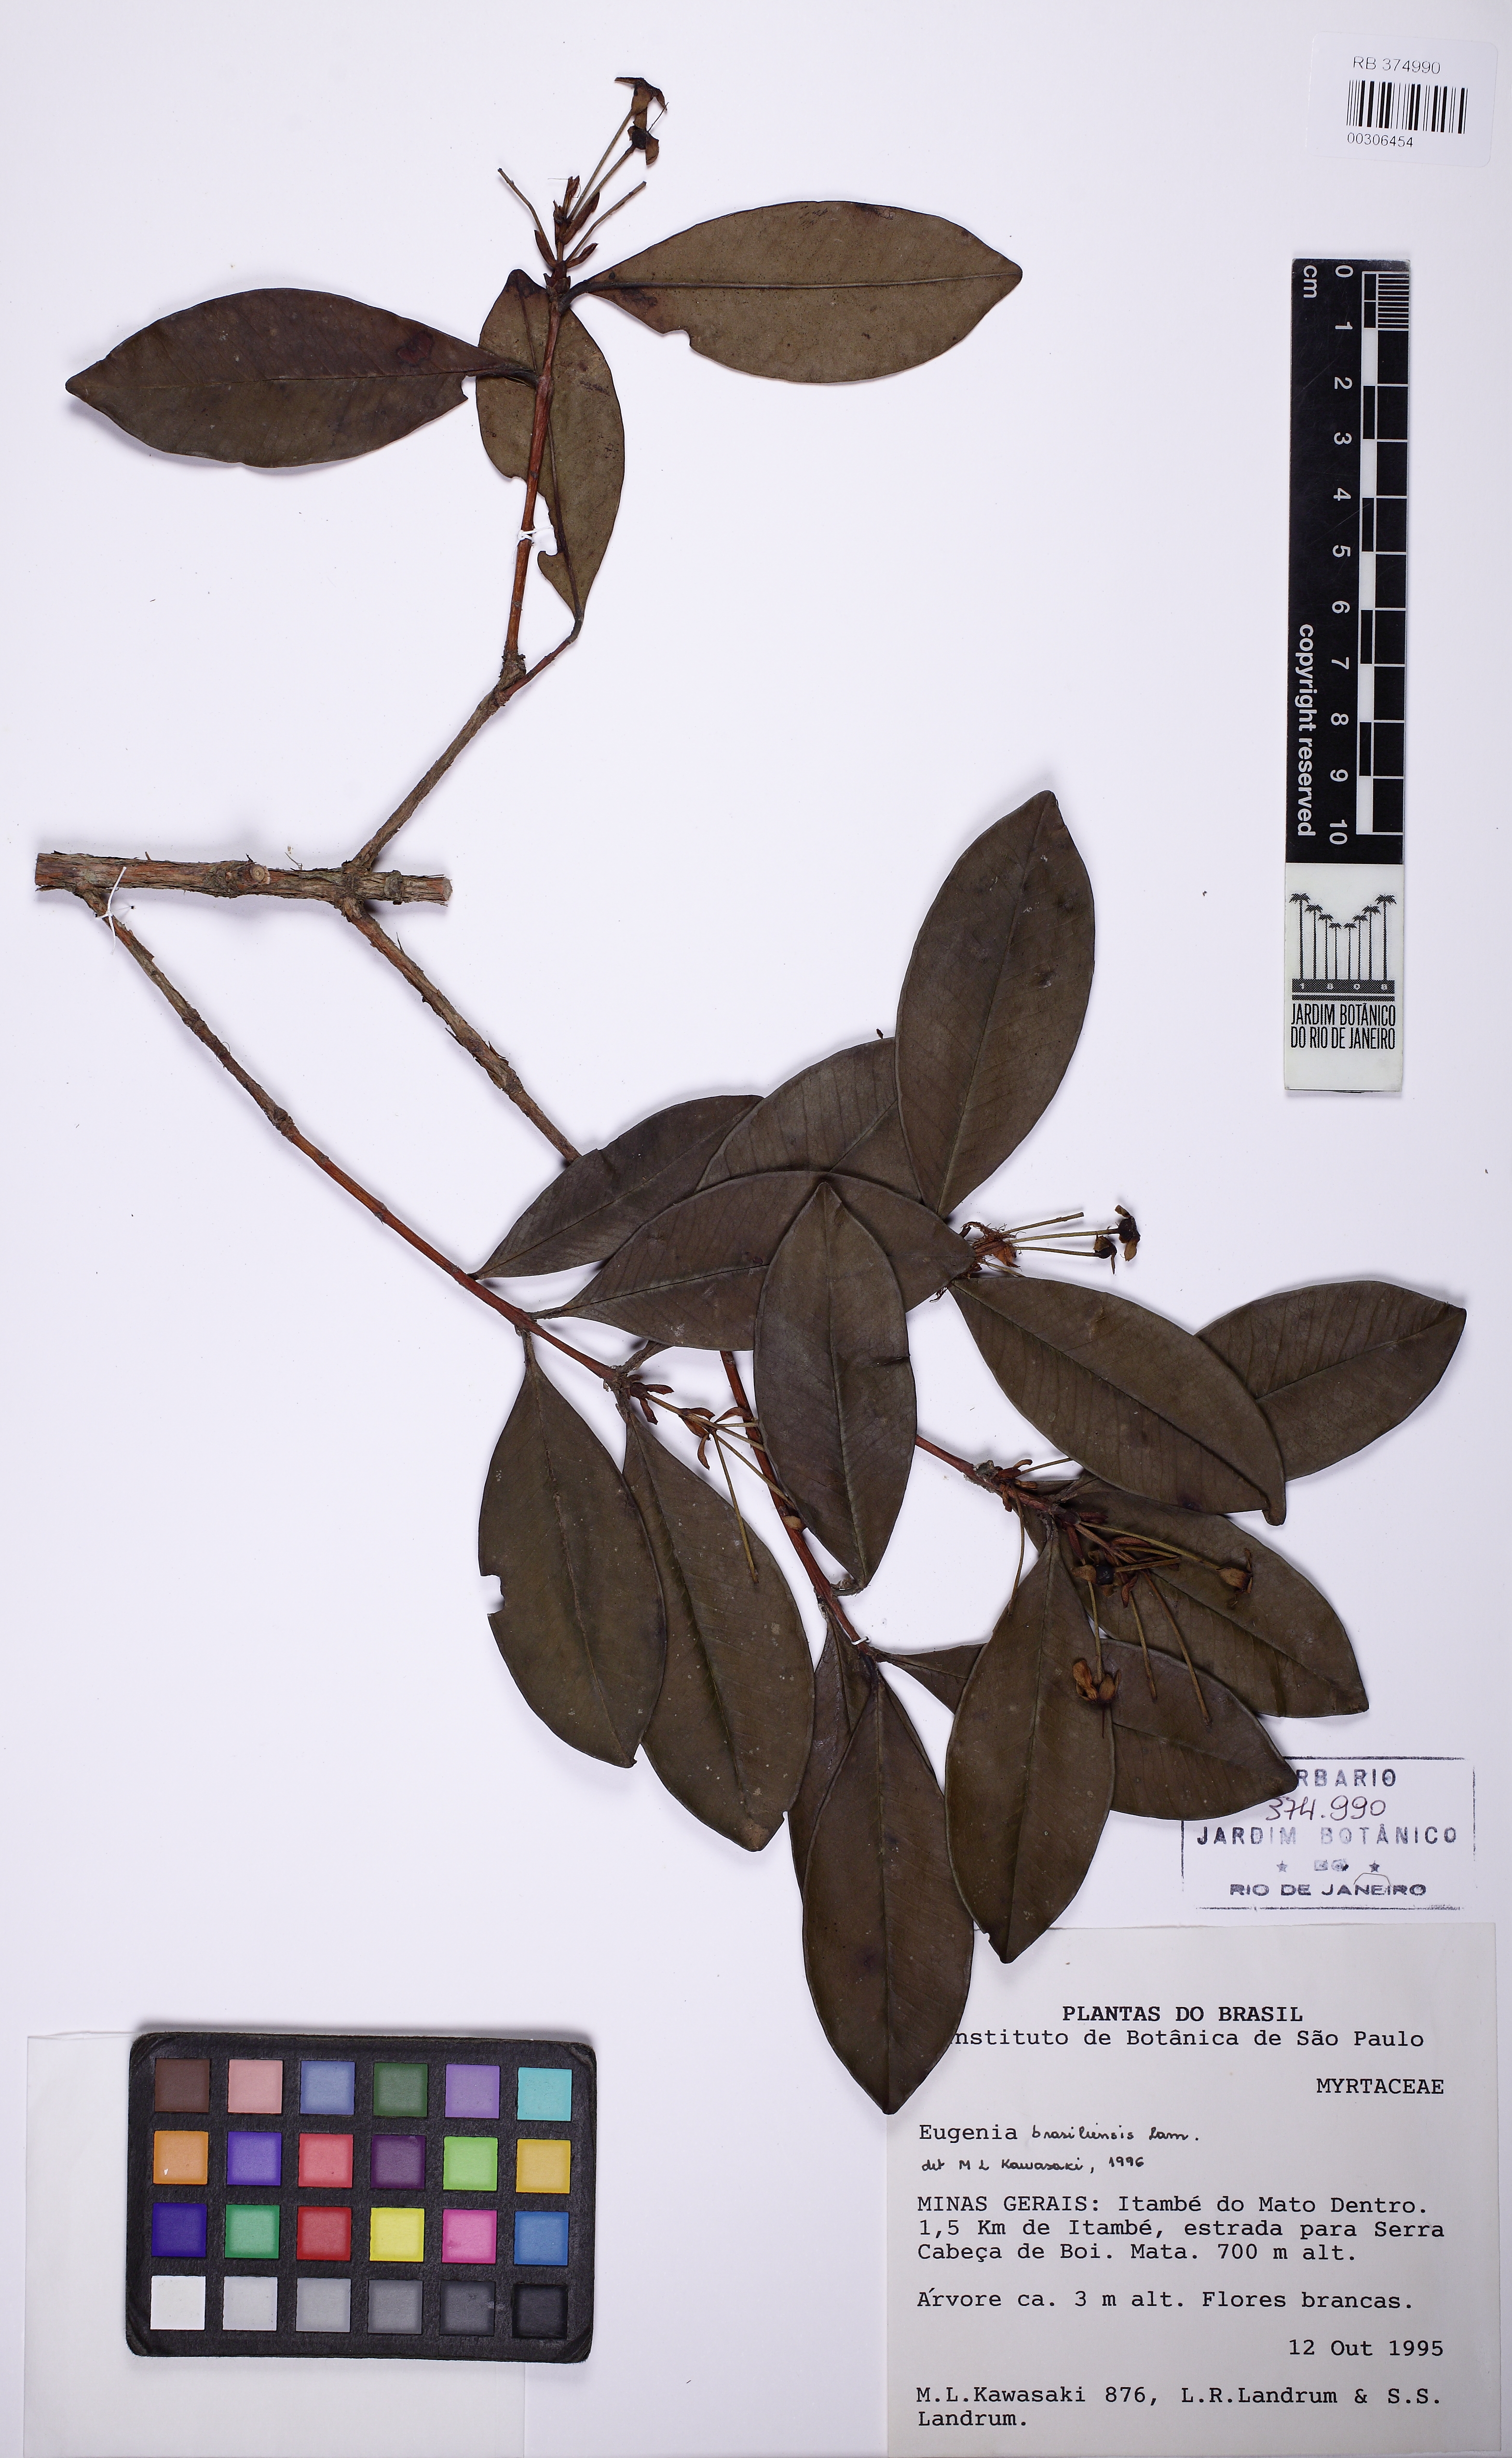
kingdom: Plantae
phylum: Tracheophyta
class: Magnoliopsida
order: Myrtales
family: Myrtaceae
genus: Eugenia
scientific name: Eugenia brasiliensis
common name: Grumichama
